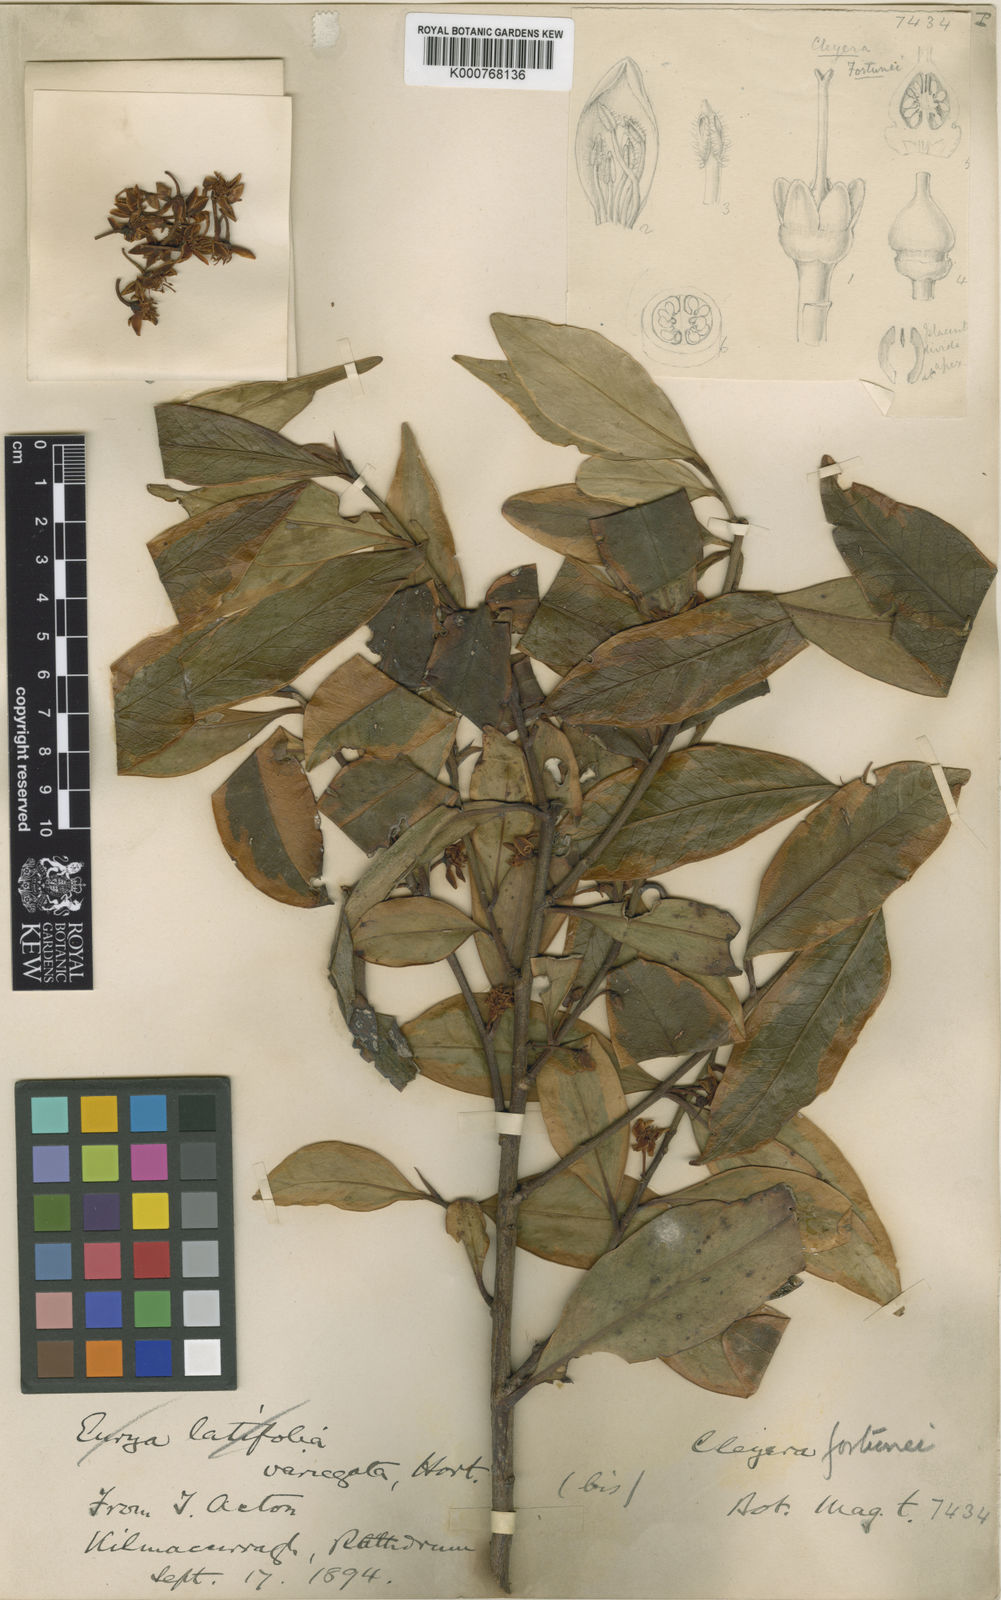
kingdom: Plantae
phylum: Tracheophyta
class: Magnoliopsida
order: Ericales
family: Pentaphylacaceae
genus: Cleyera
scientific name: Cleyera japonica
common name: Sakaki
